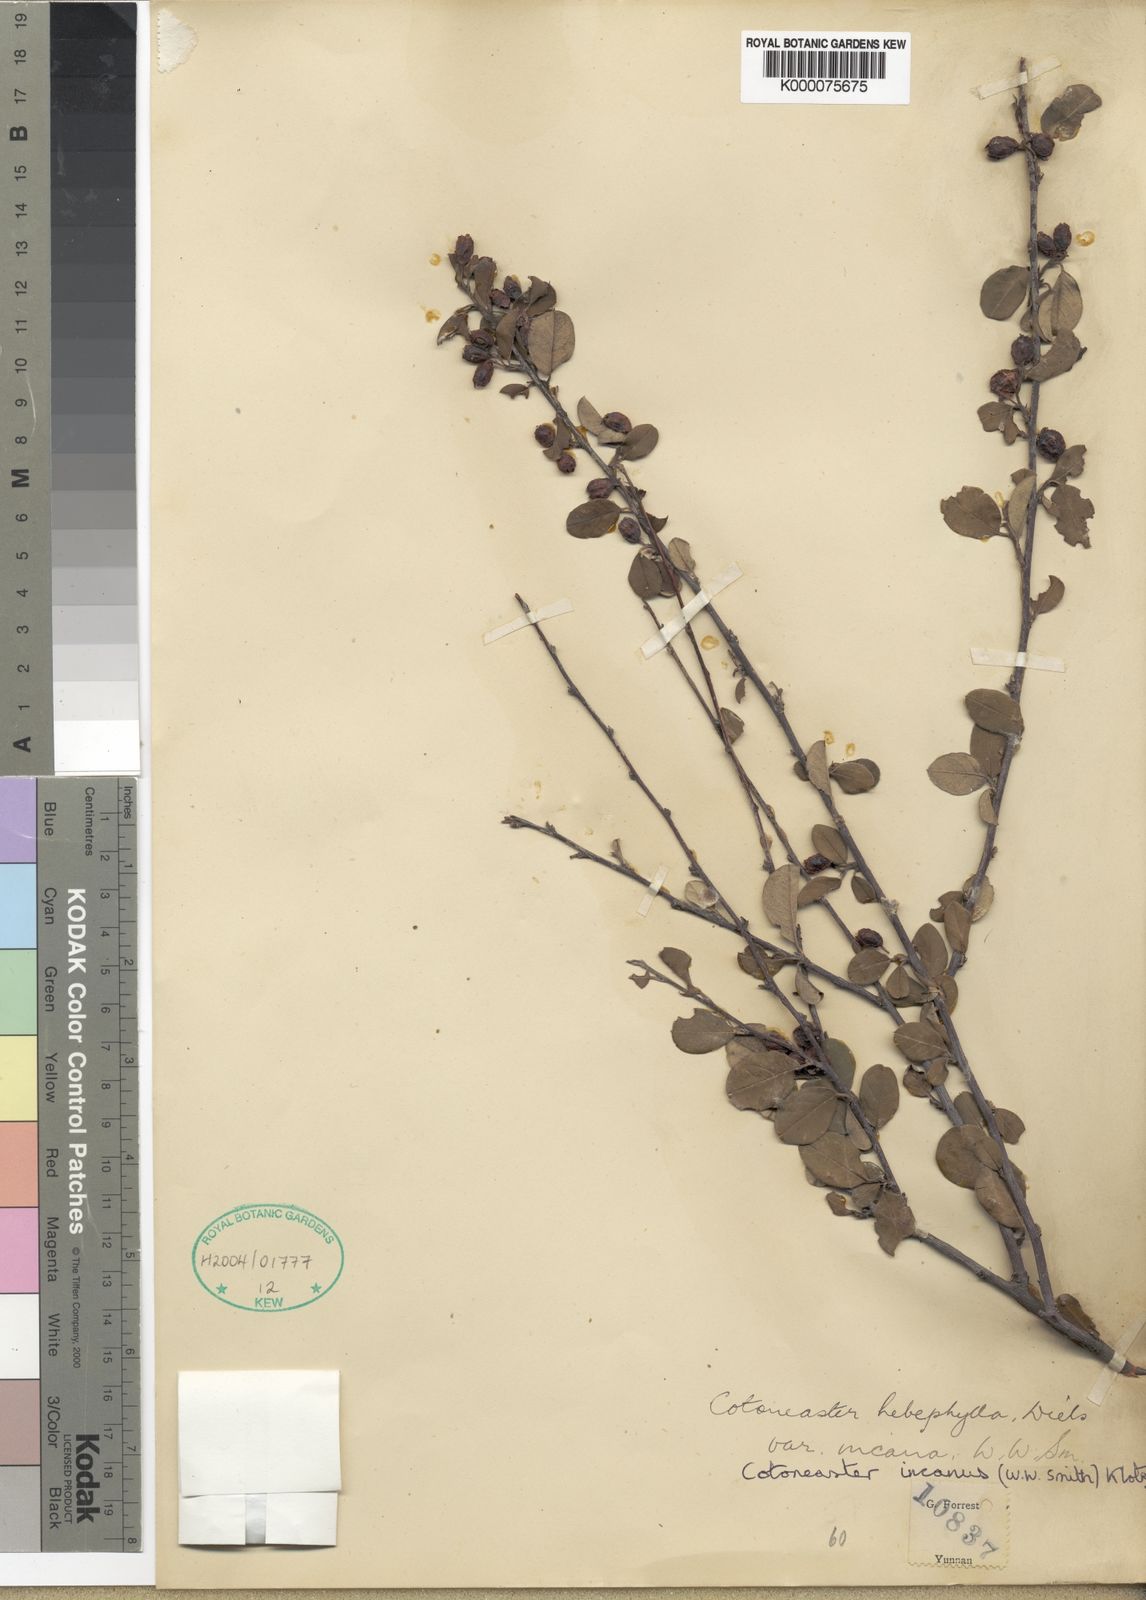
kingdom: Plantae
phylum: Tracheophyta
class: Magnoliopsida
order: Rosales
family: Rosaceae
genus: Cotoneaster
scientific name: Cotoneaster hebephyllus
